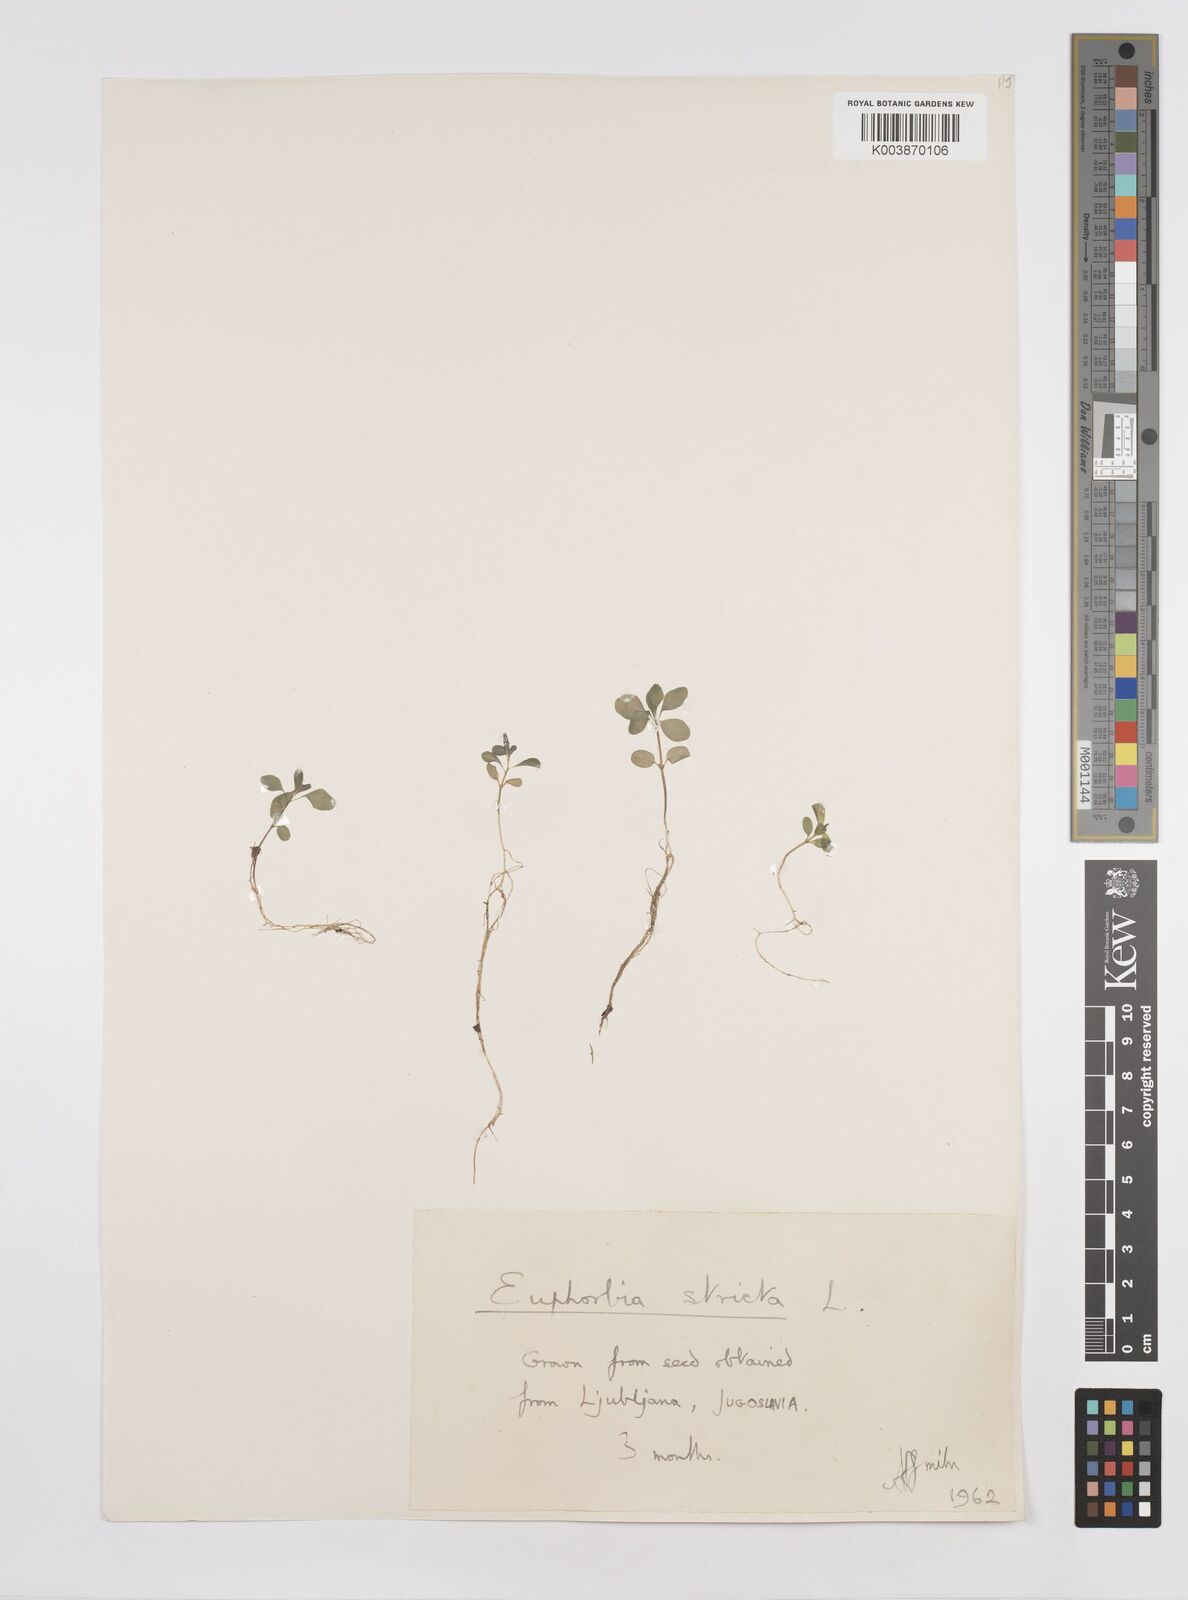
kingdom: Plantae
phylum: Tracheophyta
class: Magnoliopsida
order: Malpighiales
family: Euphorbiaceae
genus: Euphorbia
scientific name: Euphorbia stricta
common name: Upright spurge
